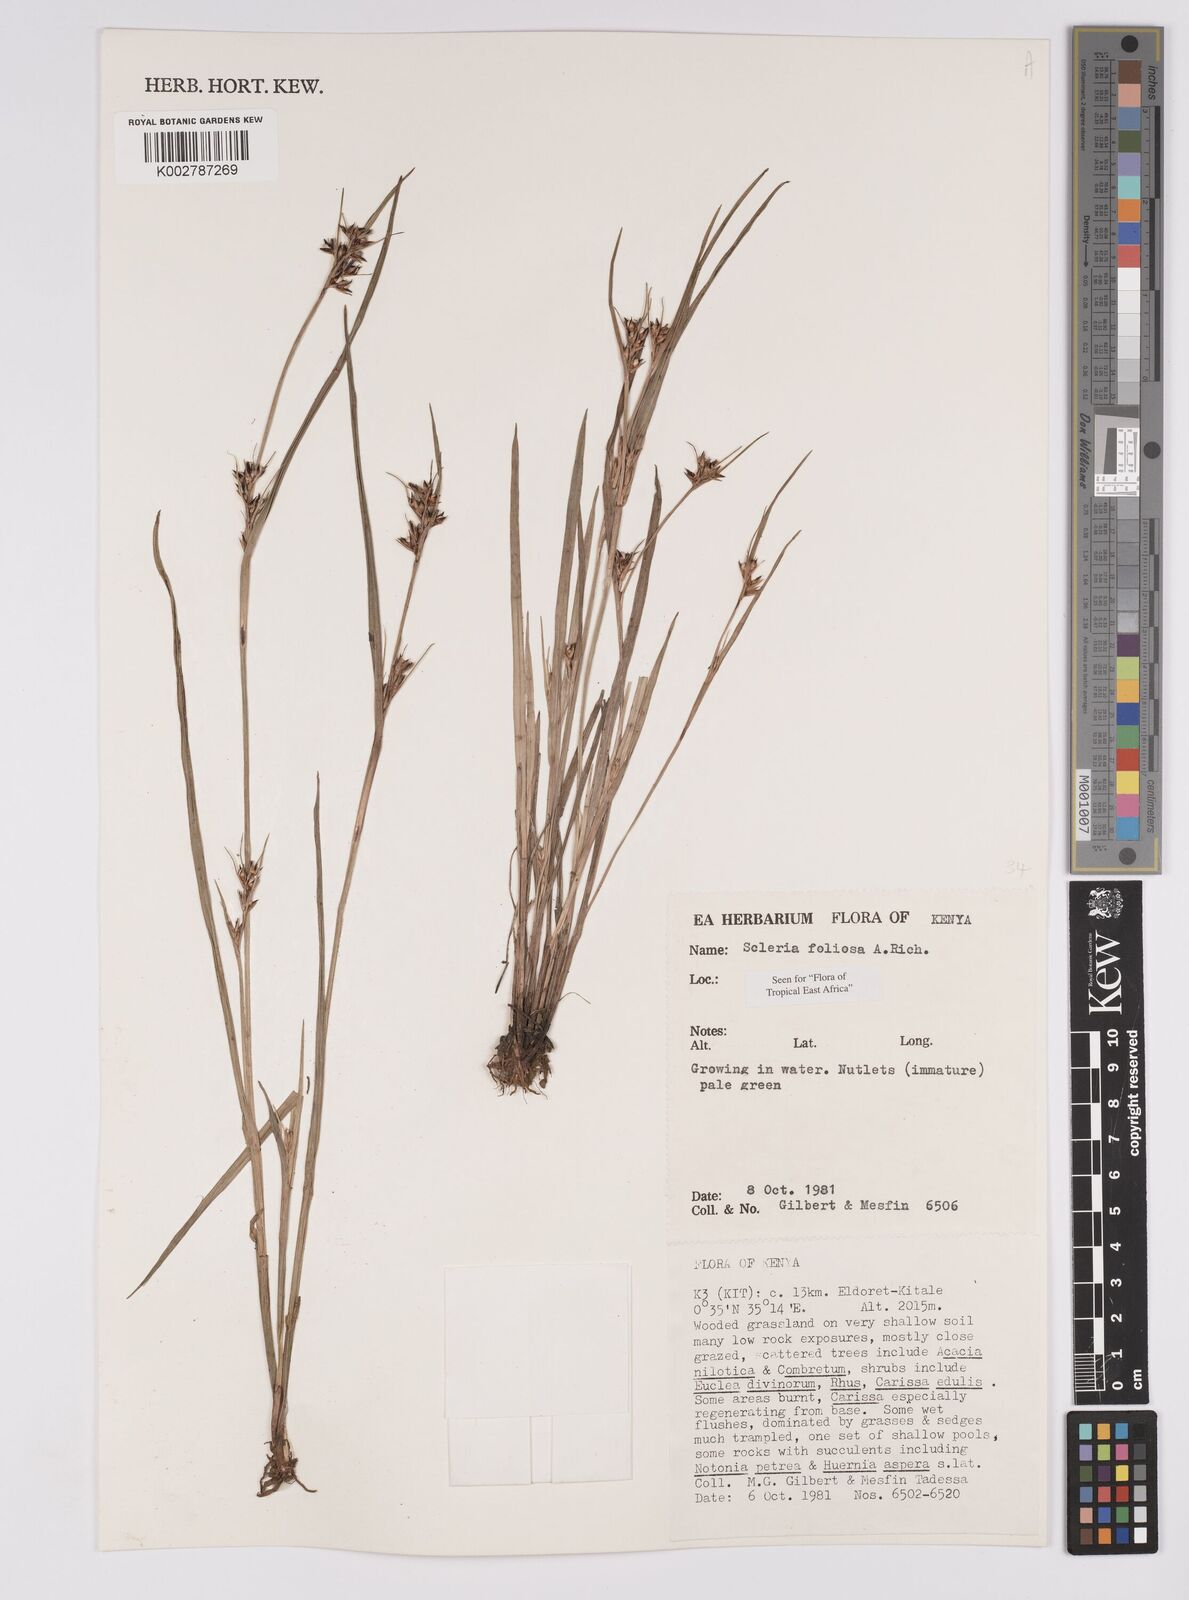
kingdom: Plantae
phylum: Tracheophyta
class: Liliopsida
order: Poales
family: Cyperaceae
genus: Scleria
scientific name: Scleria foliosa
